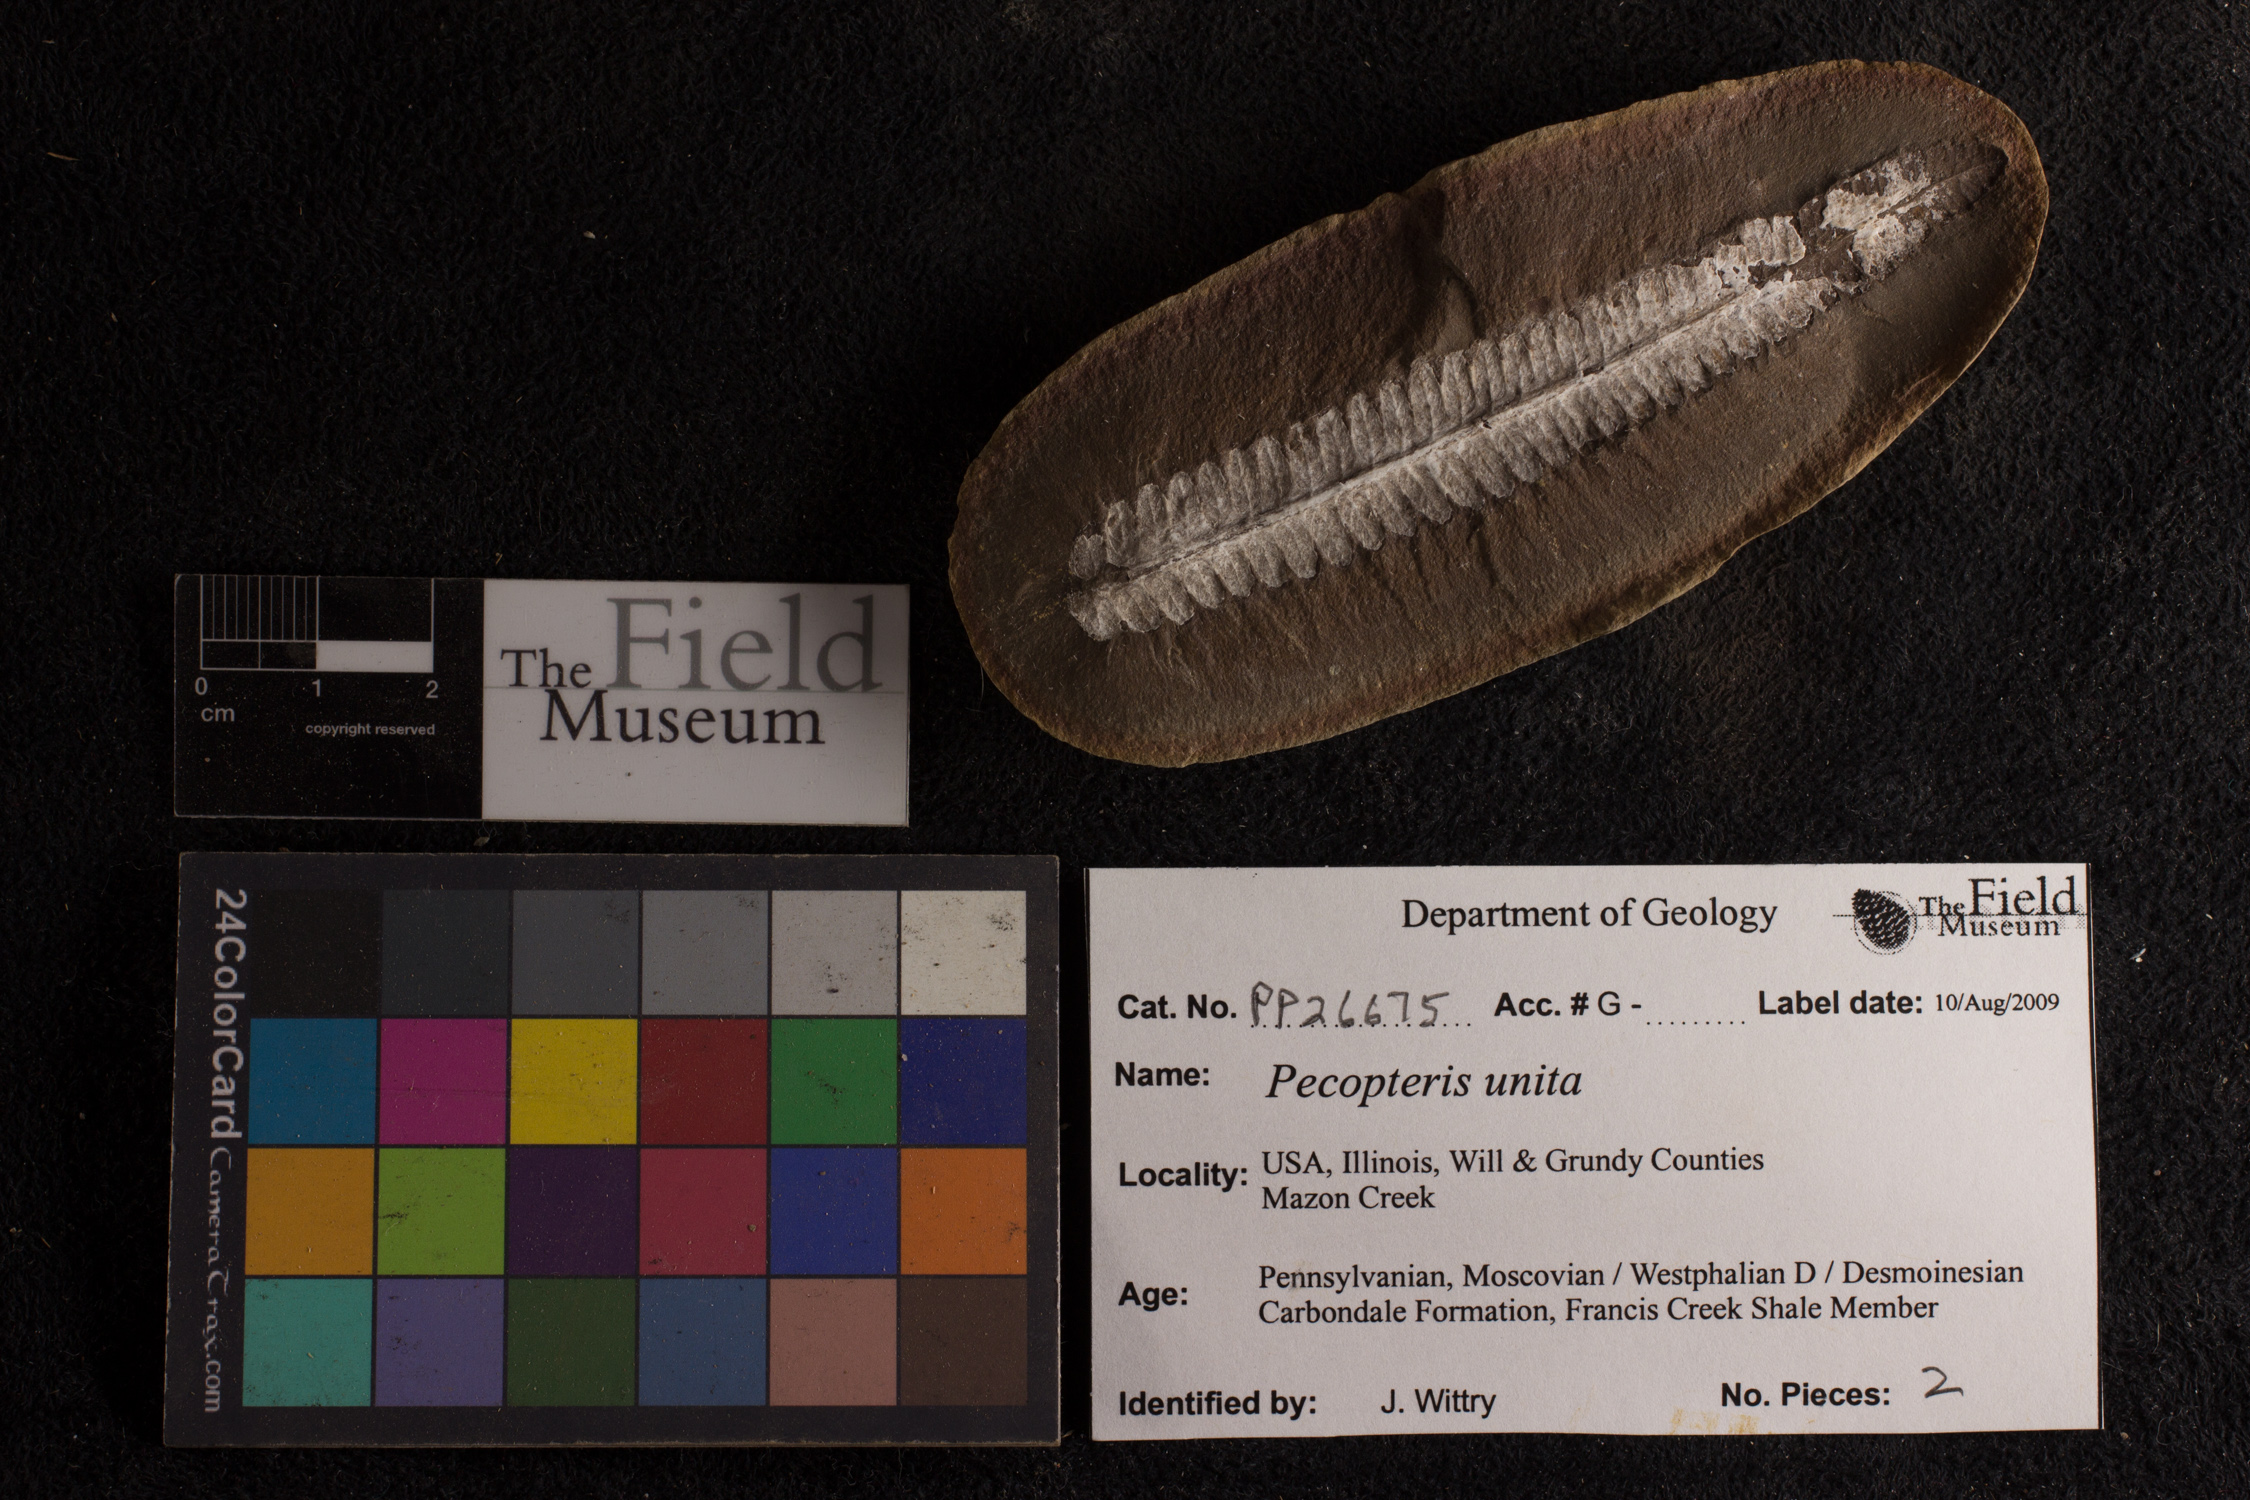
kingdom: Plantae
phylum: Tracheophyta
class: Polypodiopsida
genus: Diplazites
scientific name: Diplazites
